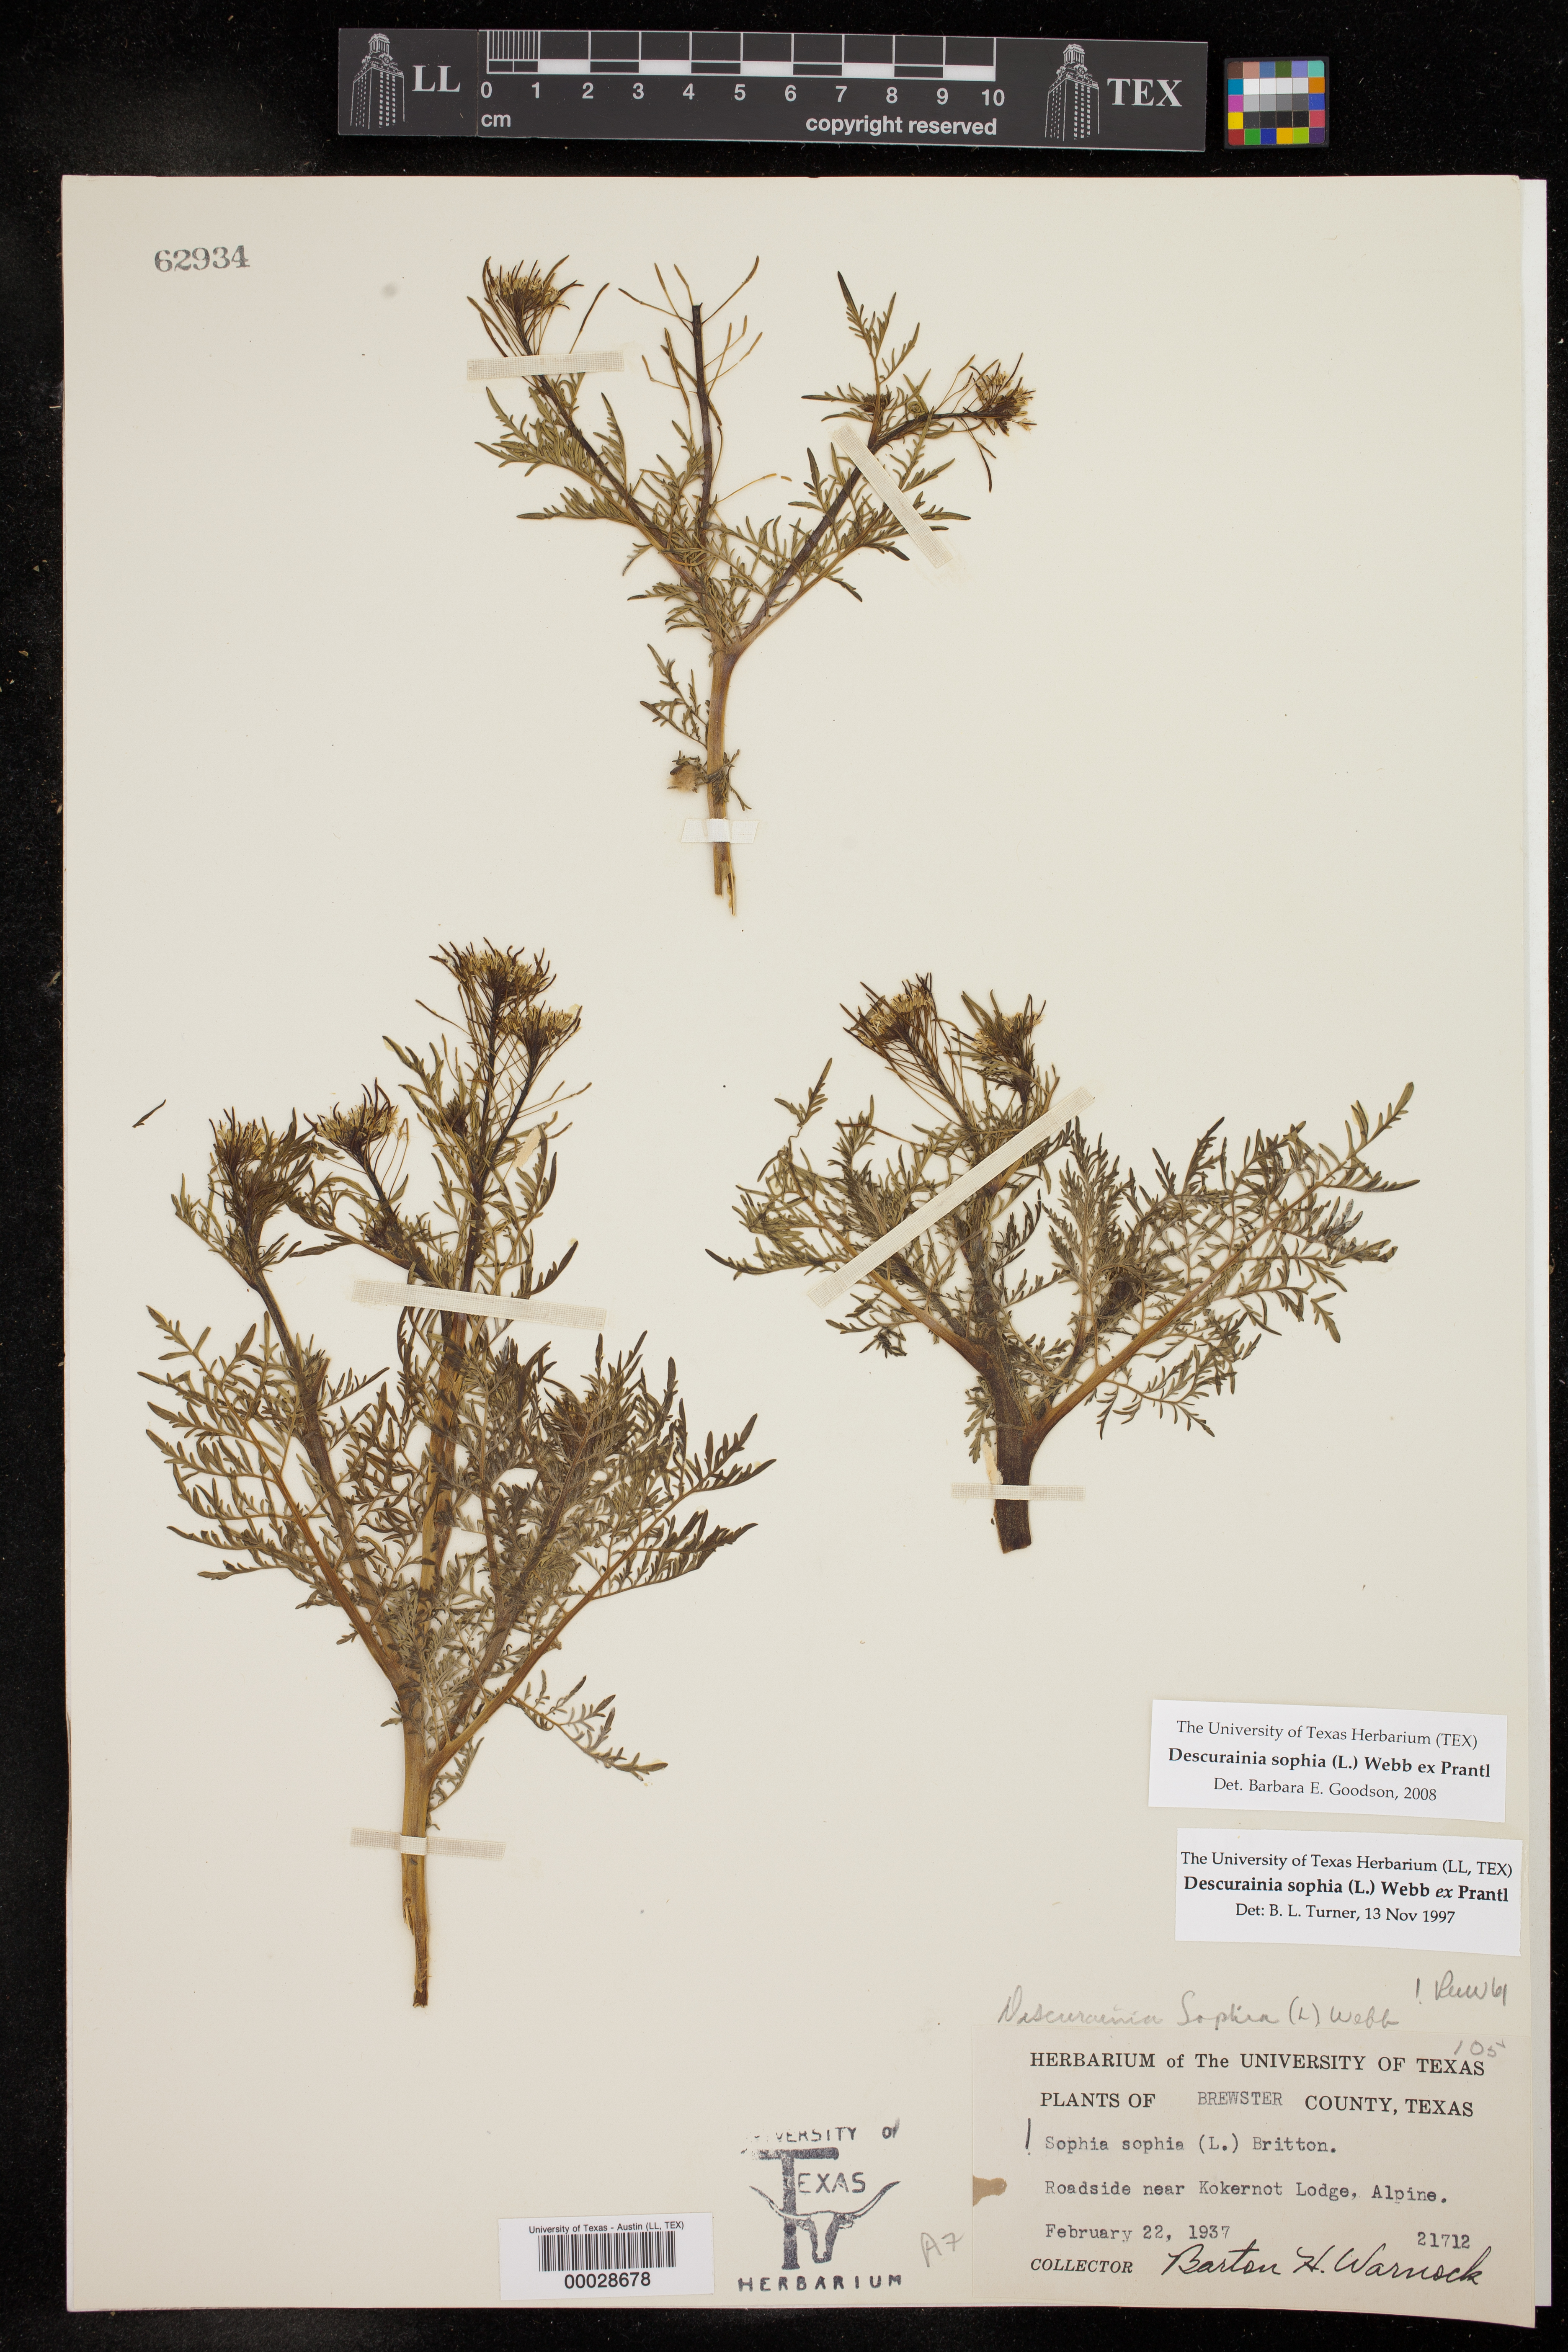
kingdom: Plantae
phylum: Tracheophyta
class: Magnoliopsida
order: Brassicales
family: Brassicaceae
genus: Descurainia
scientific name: Descurainia sophia
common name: Flixweed
